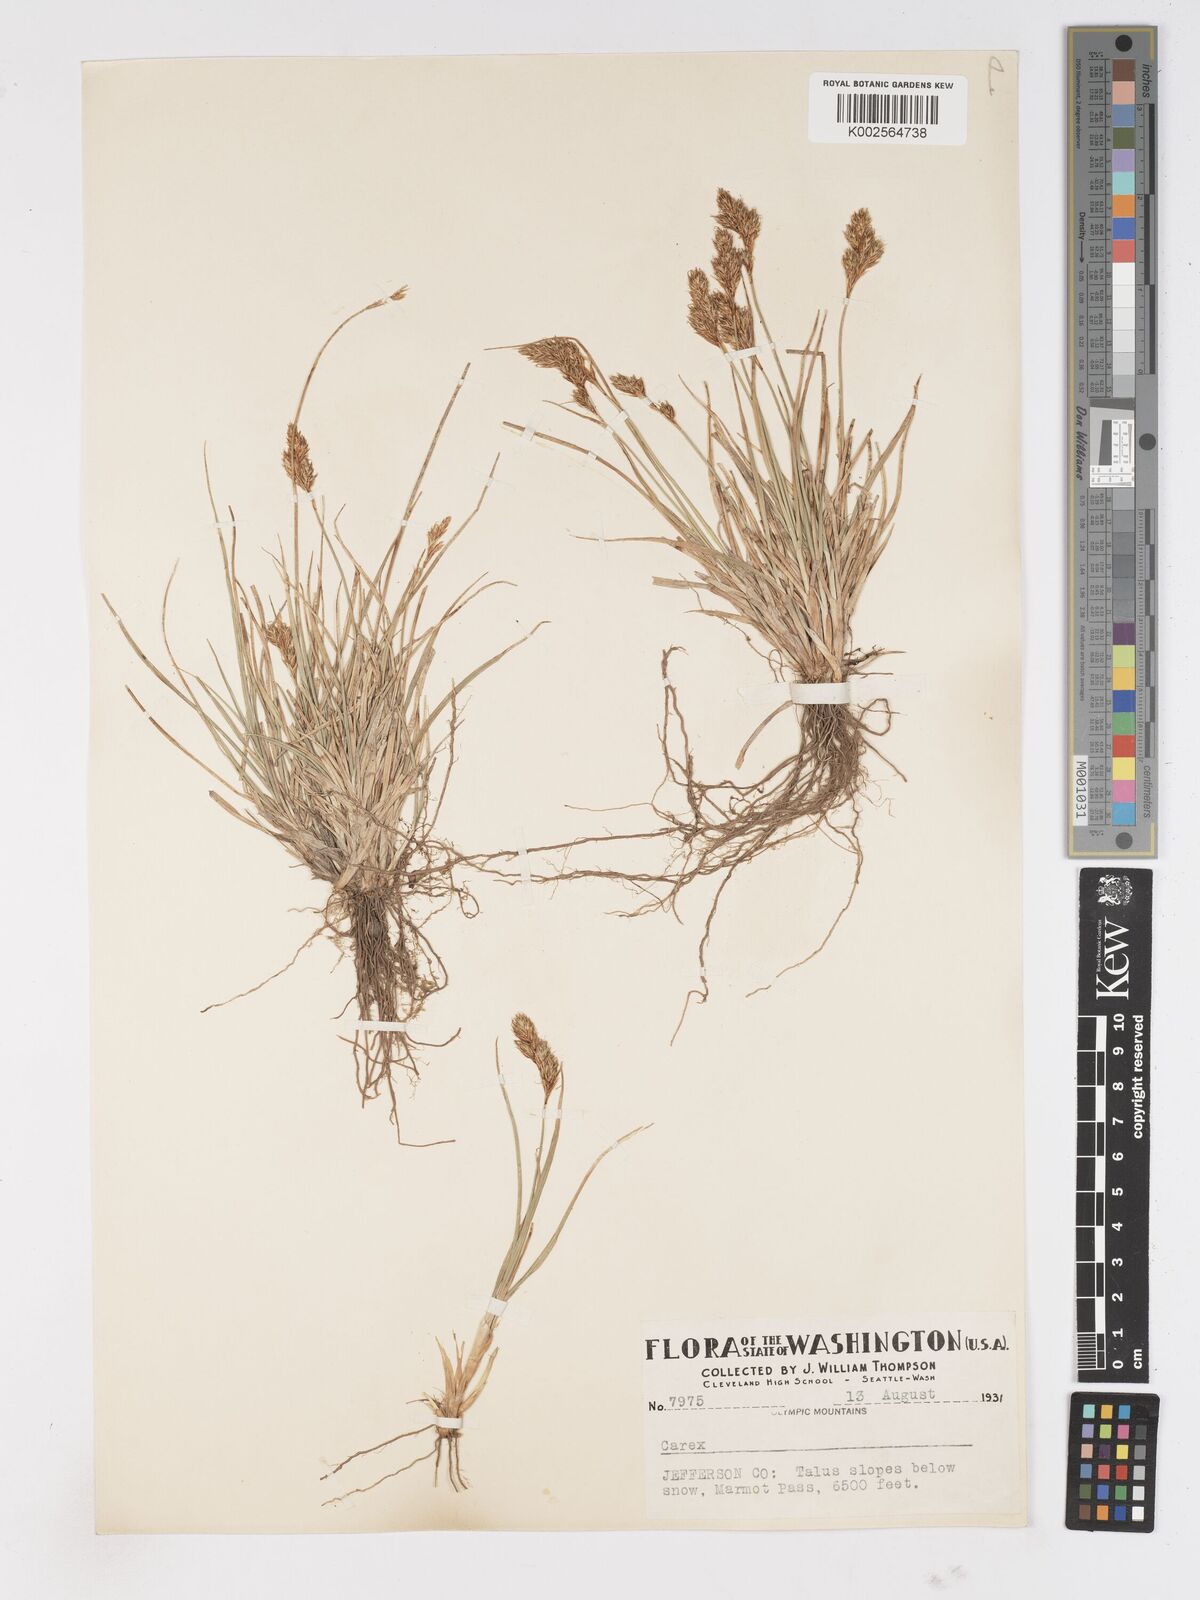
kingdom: Plantae
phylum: Tracheophyta
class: Liliopsida
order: Poales
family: Cyperaceae
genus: Carex
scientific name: Carex
